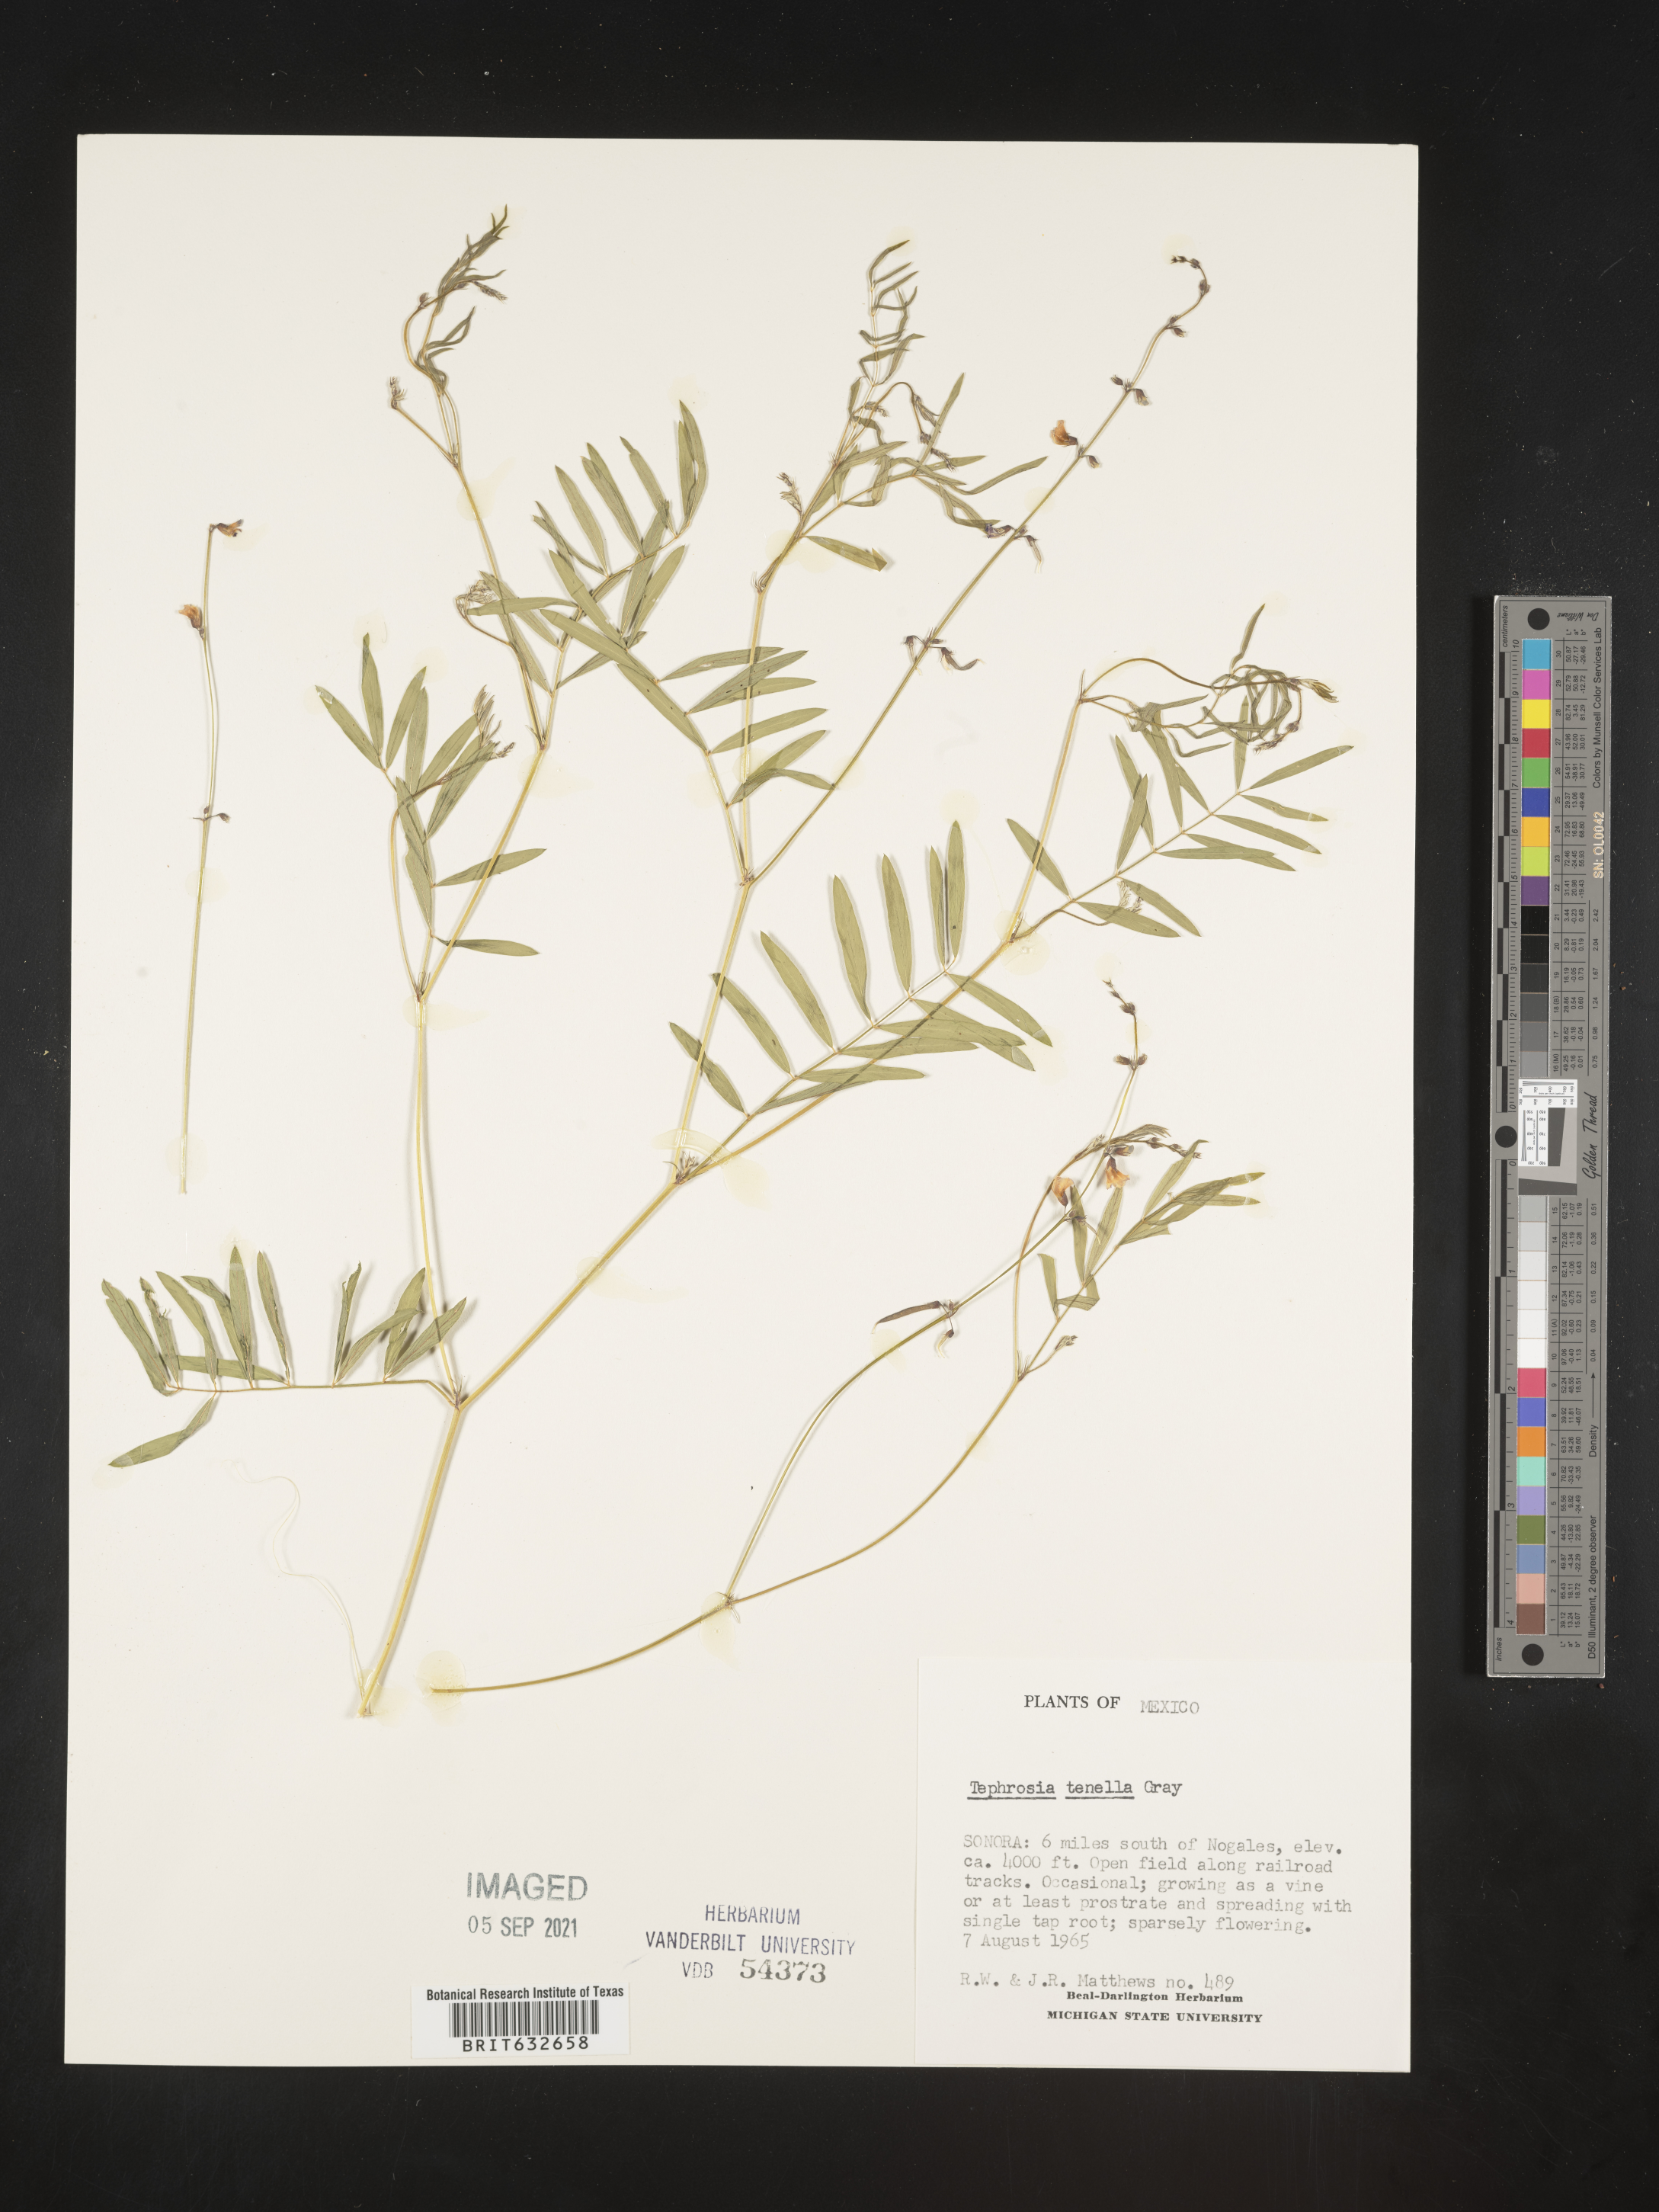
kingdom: Plantae
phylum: Tracheophyta
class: Magnoliopsida
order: Fabales
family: Fabaceae
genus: Tephrosia
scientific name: Tephrosia
